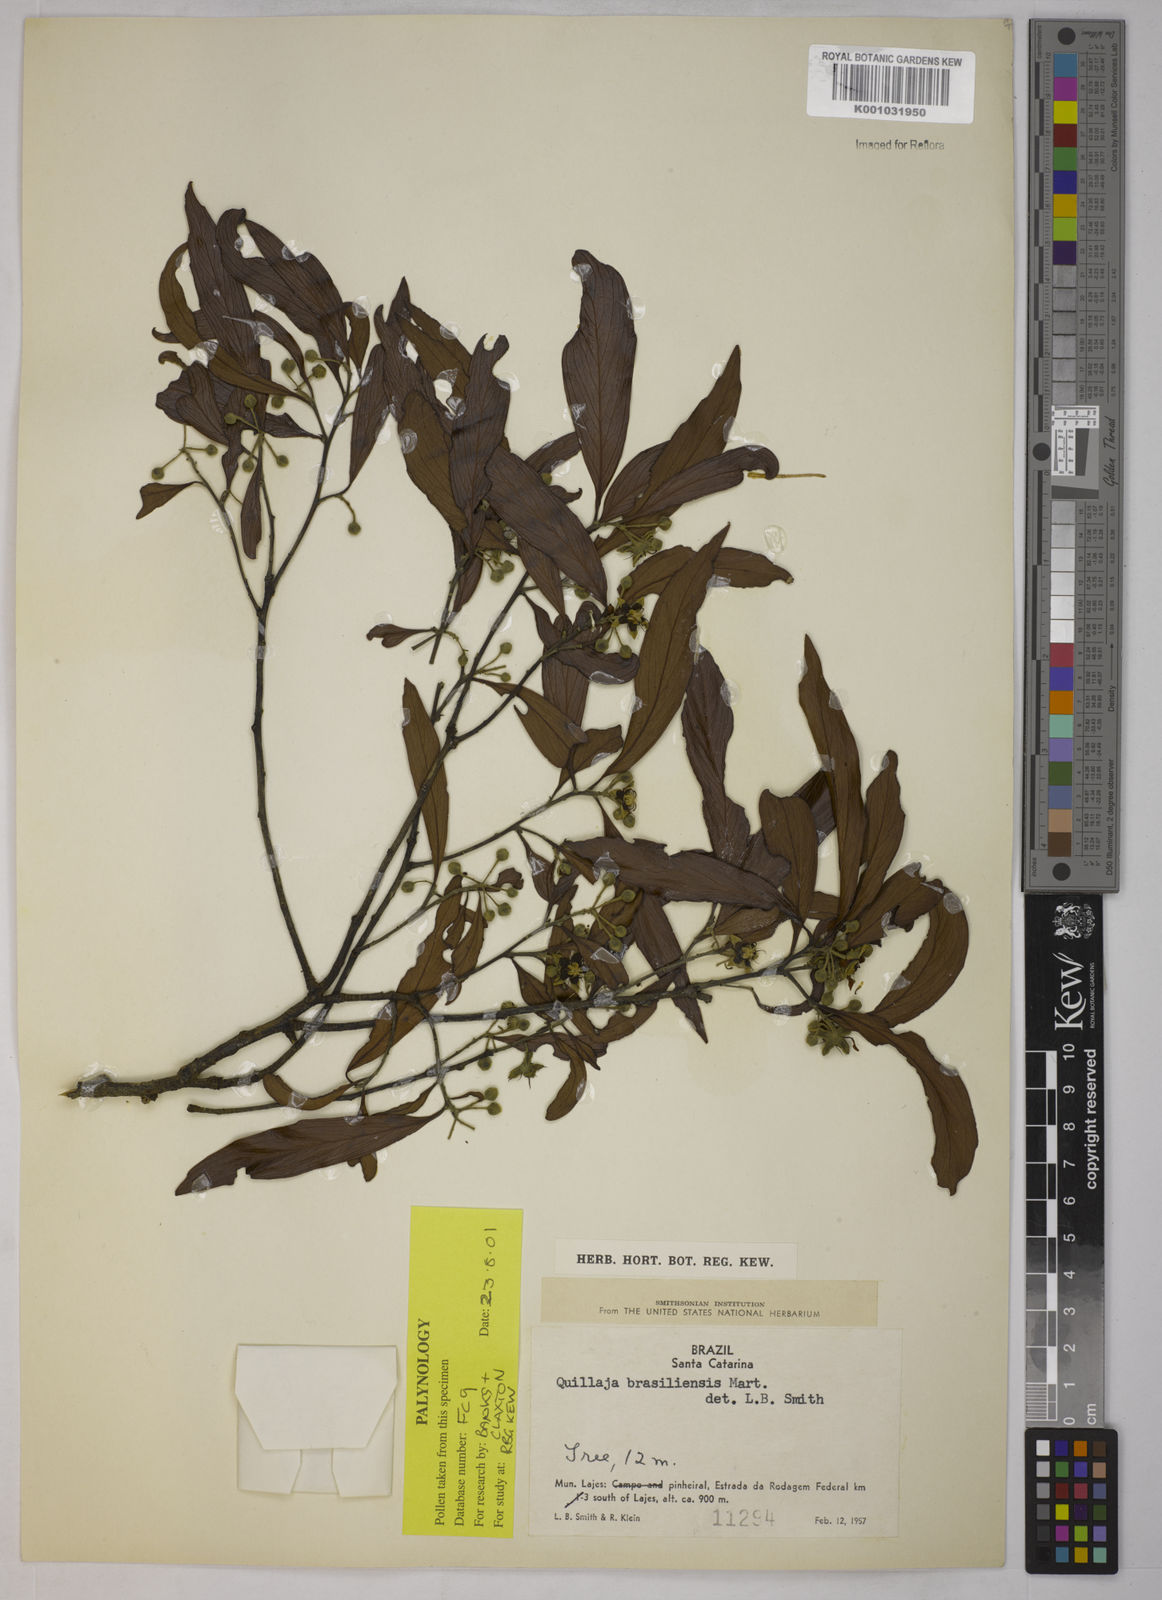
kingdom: Plantae
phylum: Tracheophyta
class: Magnoliopsida
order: Fabales
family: Quillajaceae
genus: Quillaja
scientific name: Quillaja brasiliensis
